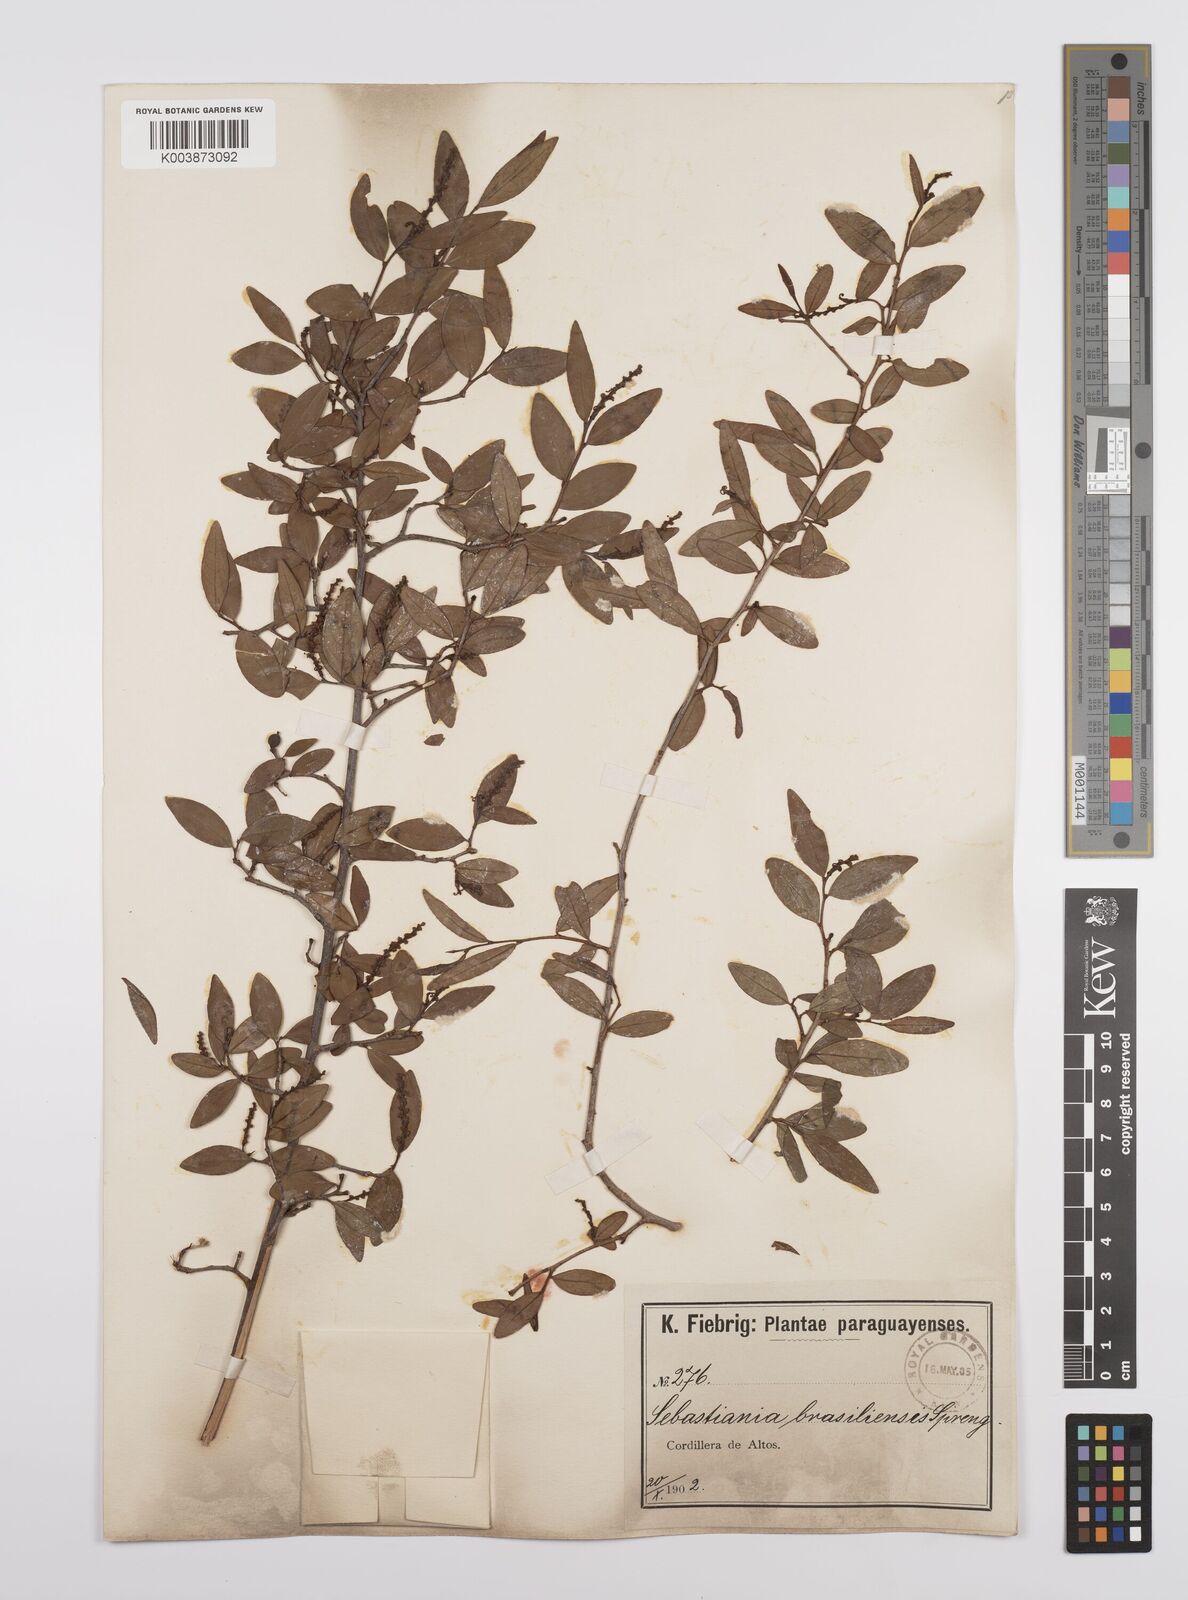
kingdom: Plantae
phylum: Tracheophyta
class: Magnoliopsida
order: Malpighiales
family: Euphorbiaceae
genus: Sebastiania
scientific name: Sebastiania ramosissima
